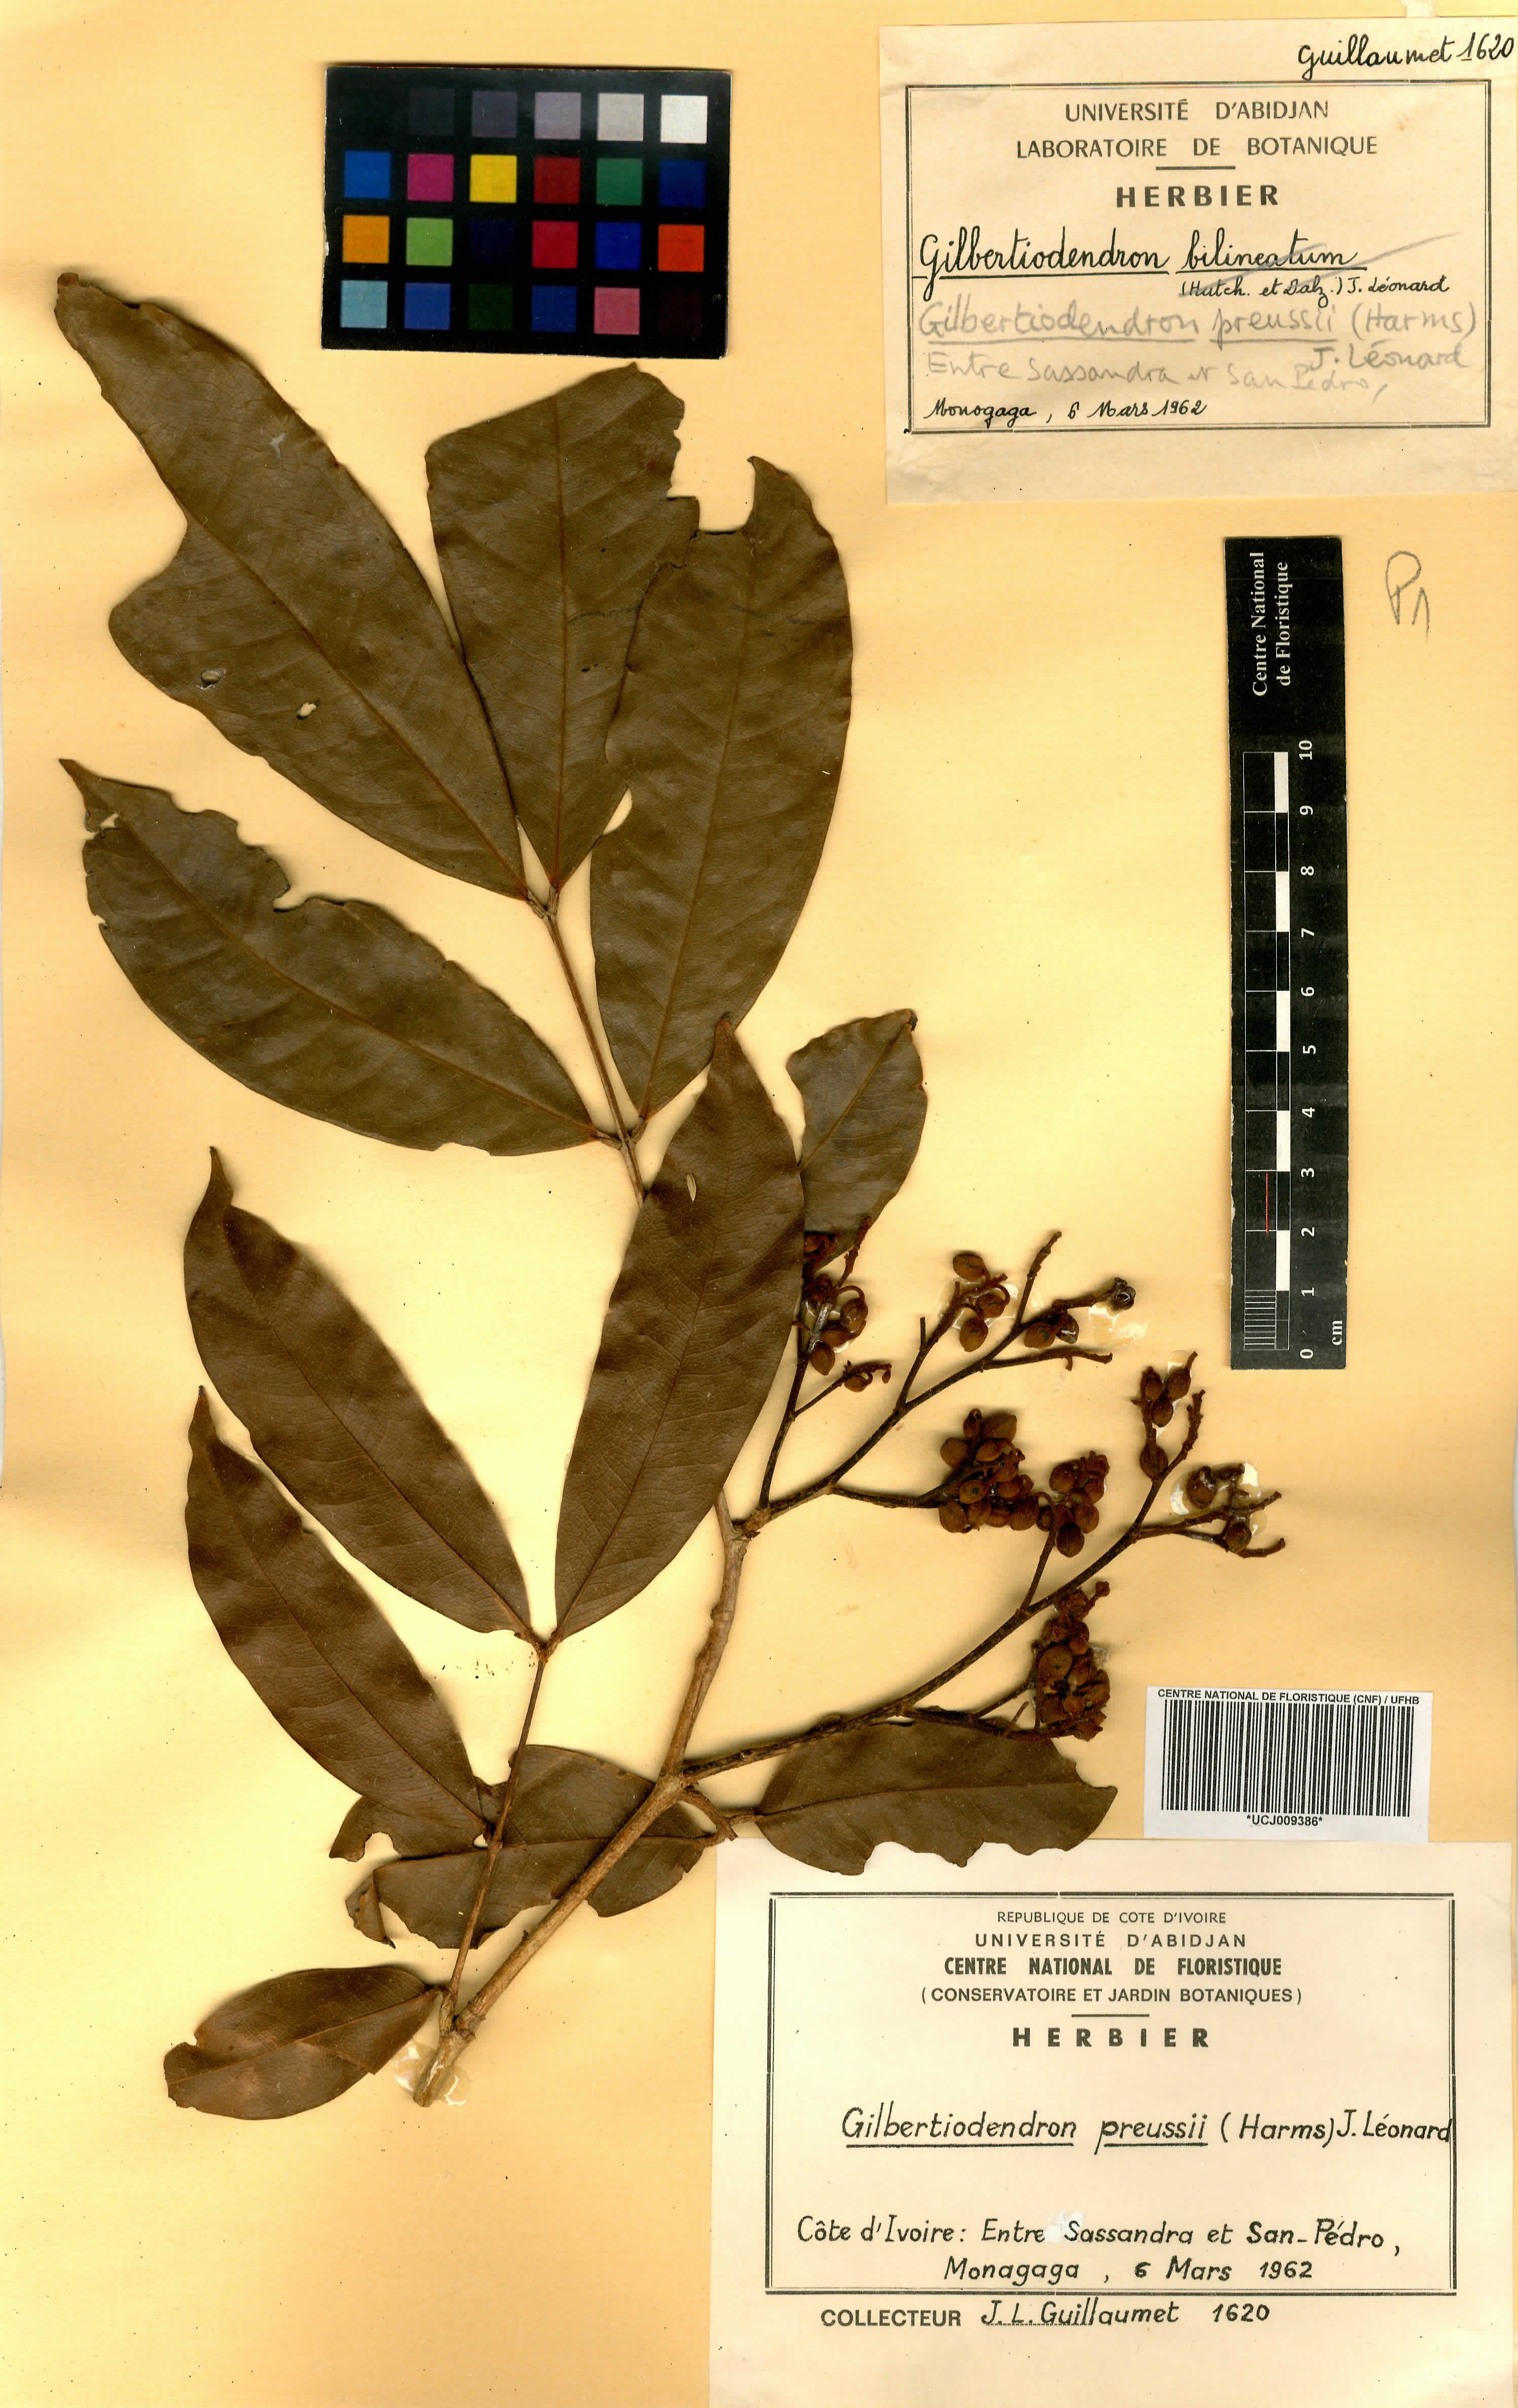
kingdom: Plantae
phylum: Tracheophyta
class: Magnoliopsida
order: Fabales
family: Fabaceae
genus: Gilbertiodendron
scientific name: Gilbertiodendron preussii
